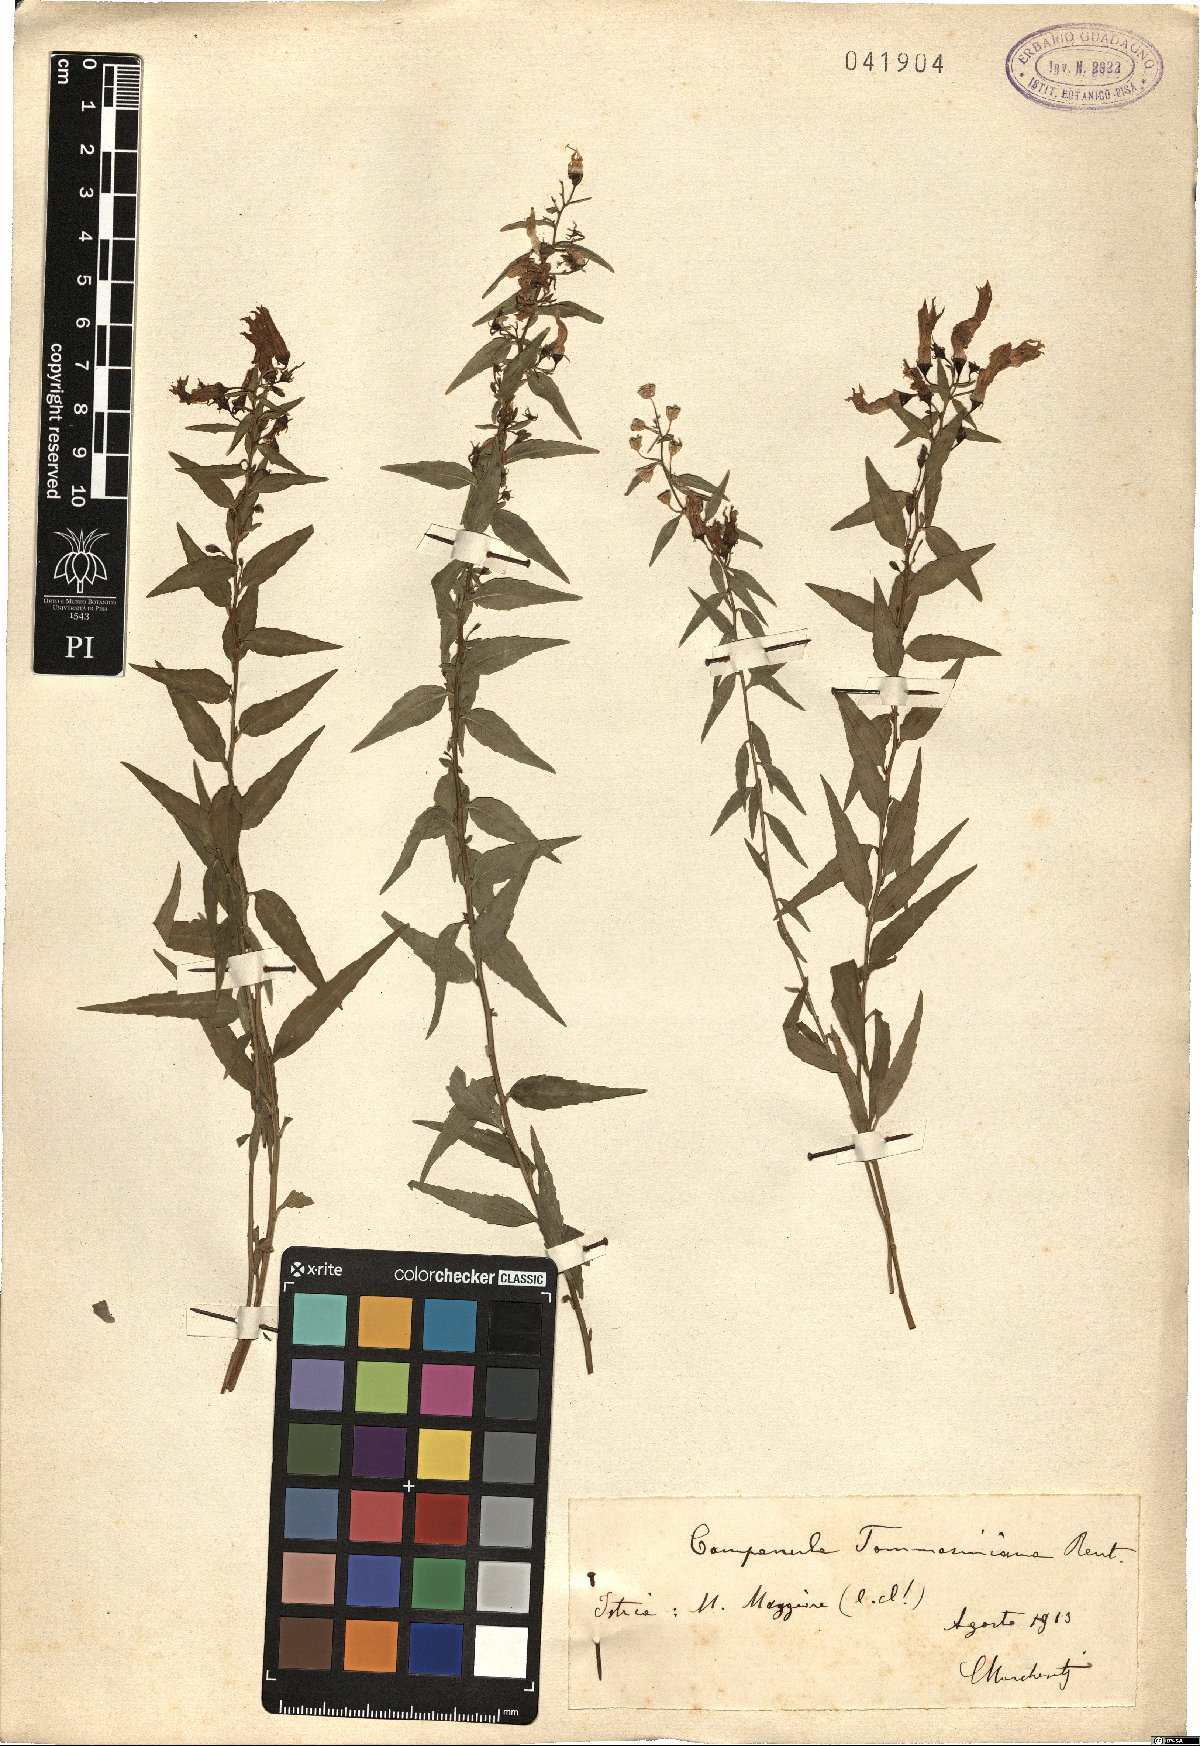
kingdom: Plantae
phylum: Tracheophyta
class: Magnoliopsida
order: Asterales
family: Campanulaceae
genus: Campanula
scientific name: Campanula jaubertiana
